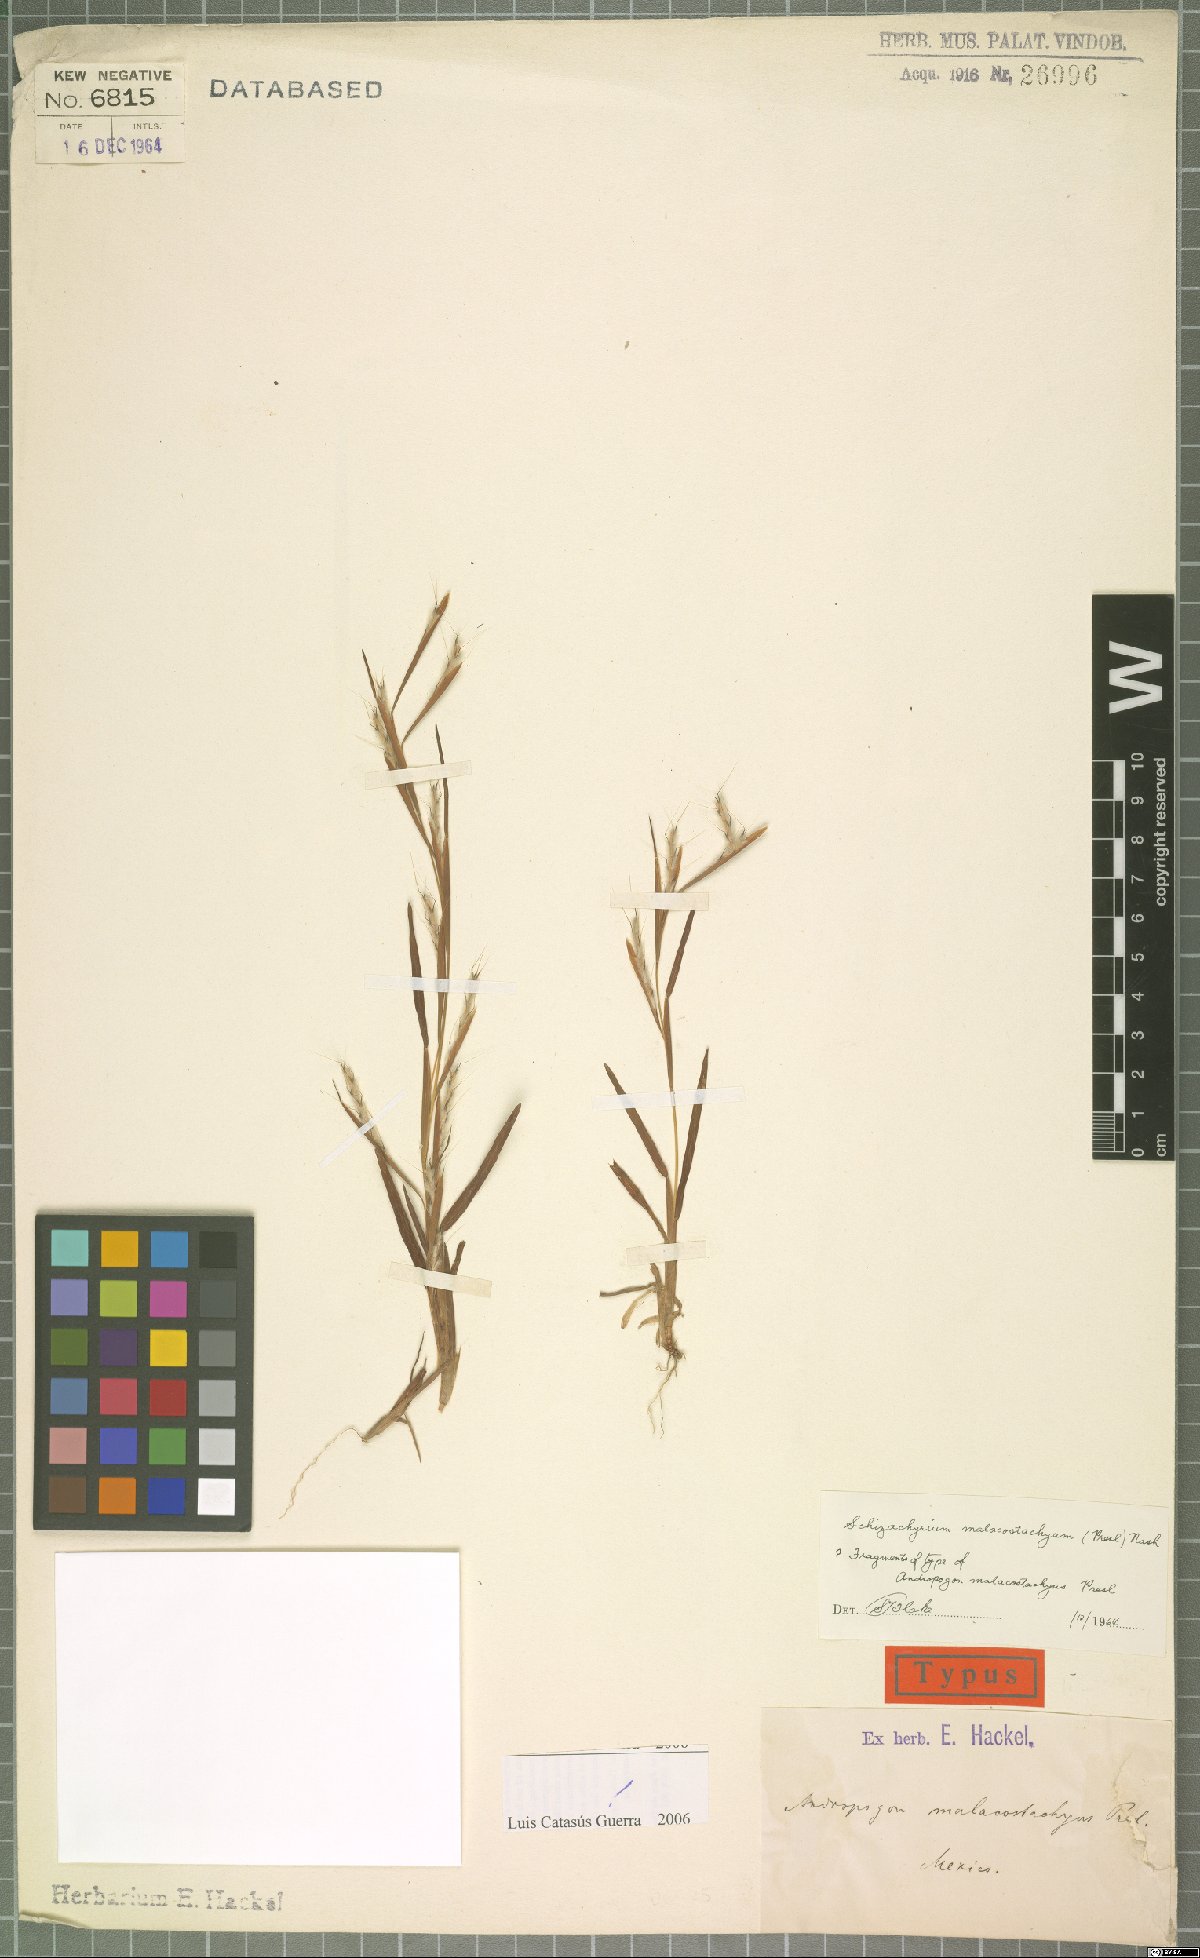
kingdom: Plantae
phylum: Tracheophyta
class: Liliopsida
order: Poales
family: Poaceae
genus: Schizachyrium
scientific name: Schizachyrium malacostachyum
